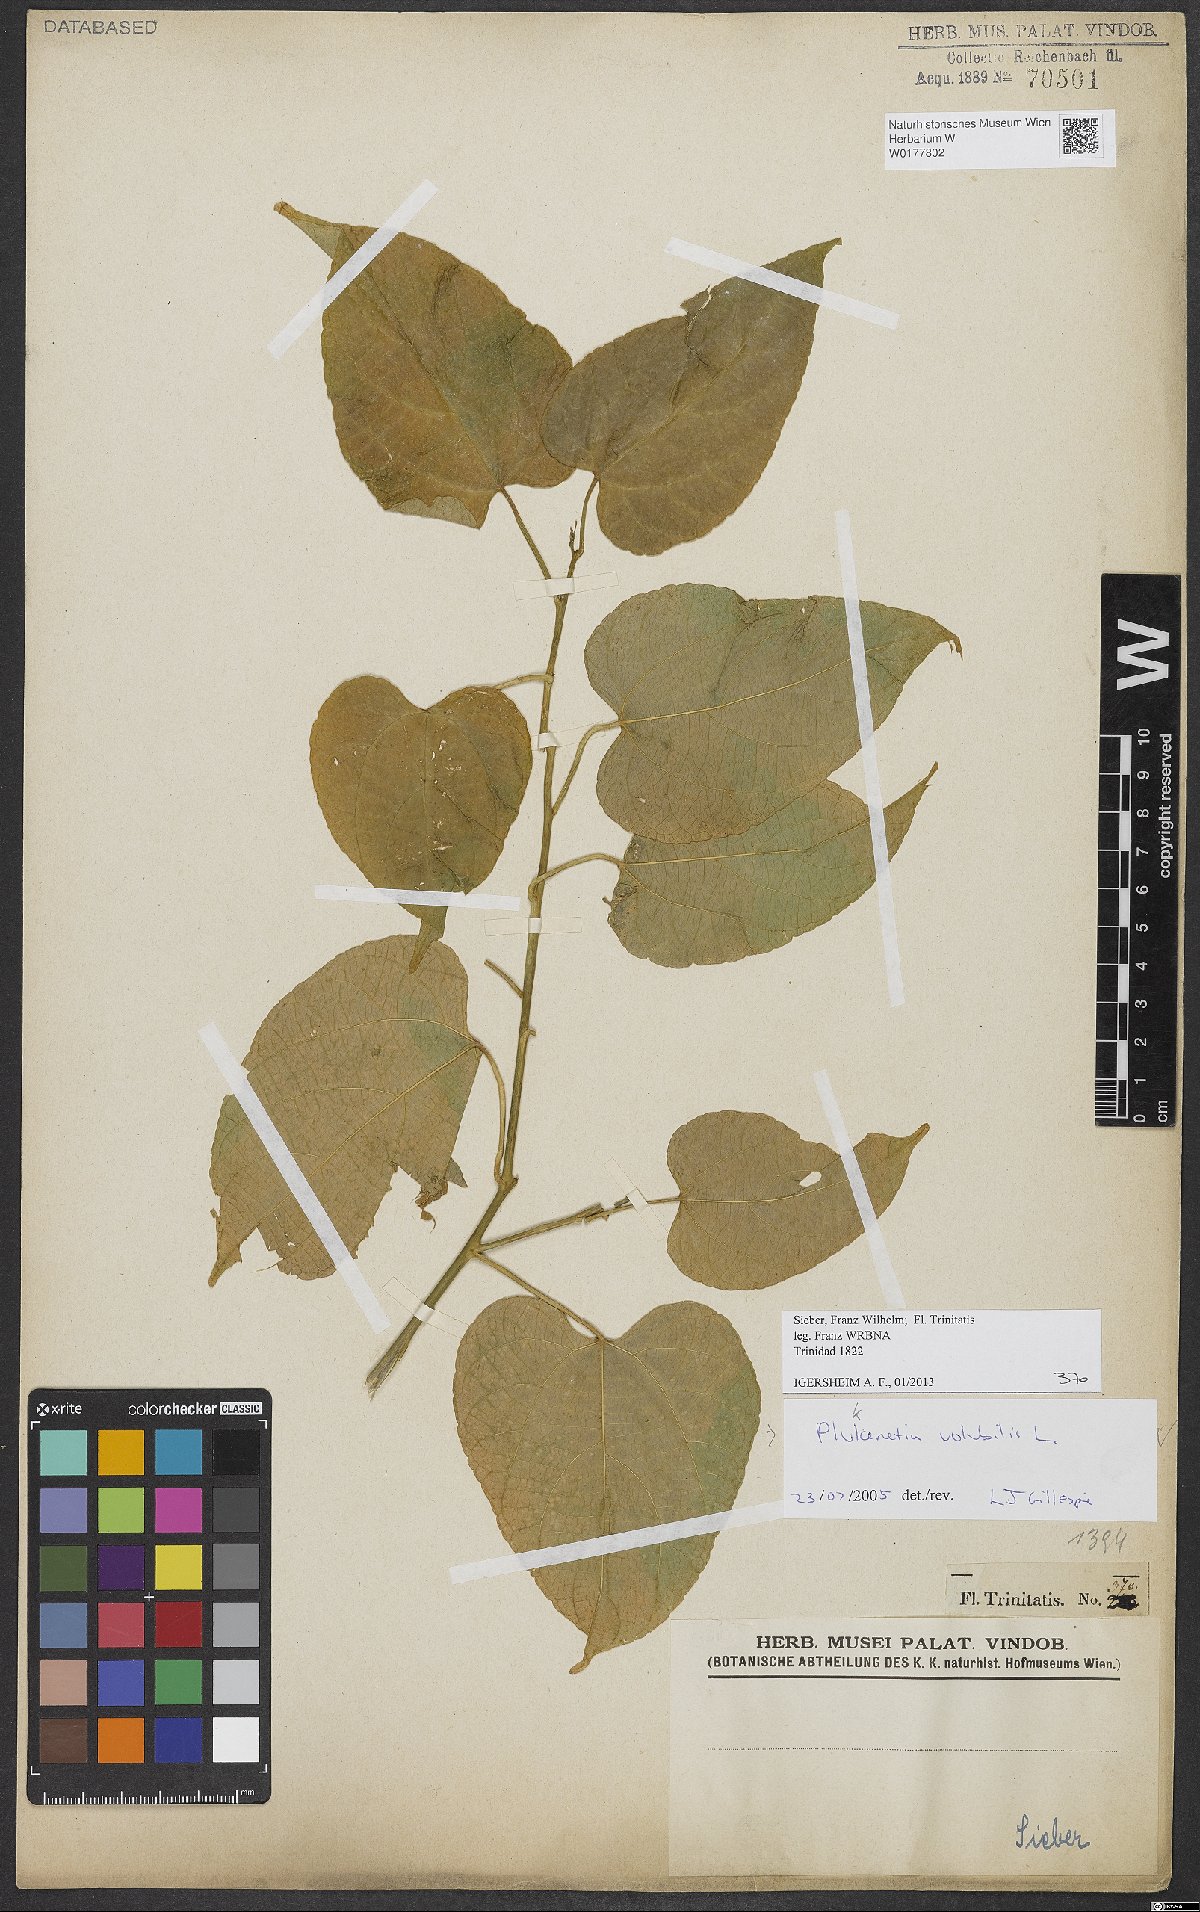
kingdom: Plantae
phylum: Tracheophyta
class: Magnoliopsida
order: Malpighiales
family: Euphorbiaceae
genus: Plukenetia
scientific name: Plukenetia volubilis
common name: Inca-peanut
